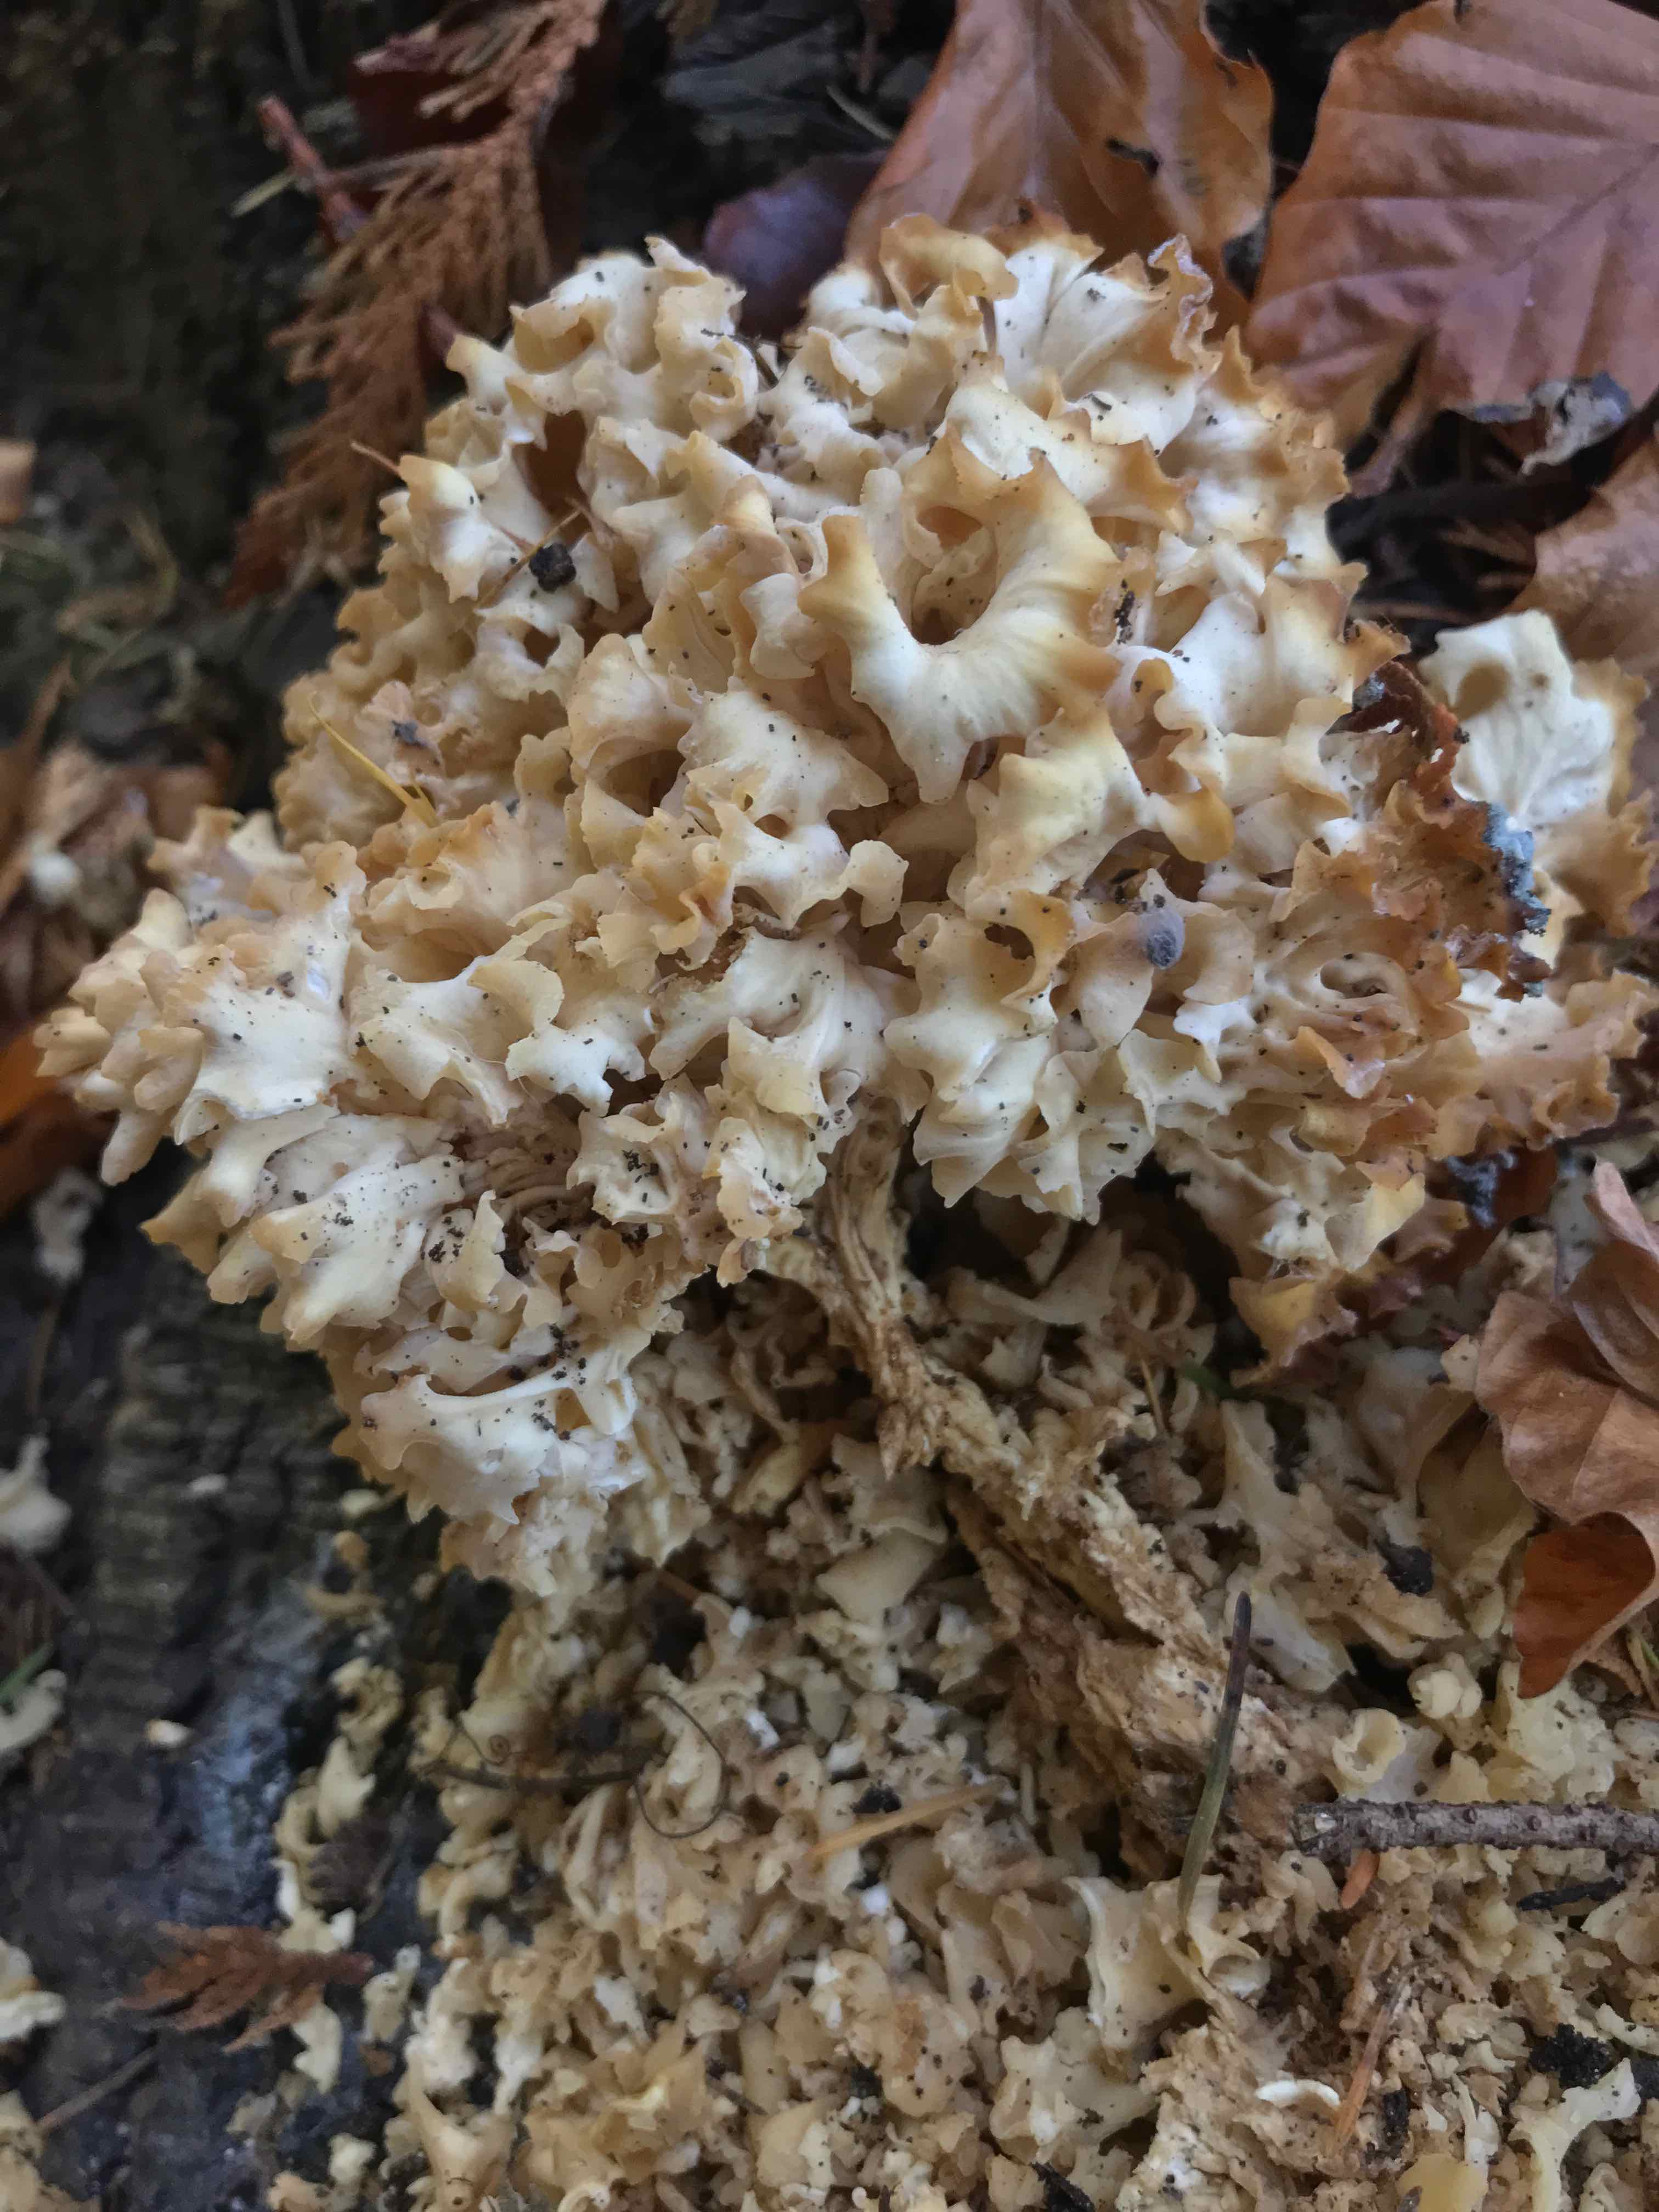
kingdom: Fungi
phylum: Basidiomycota
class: Agaricomycetes
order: Polyporales
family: Sparassidaceae
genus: Sparassis
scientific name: Sparassis crispa
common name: kruset blomkålssvamp
